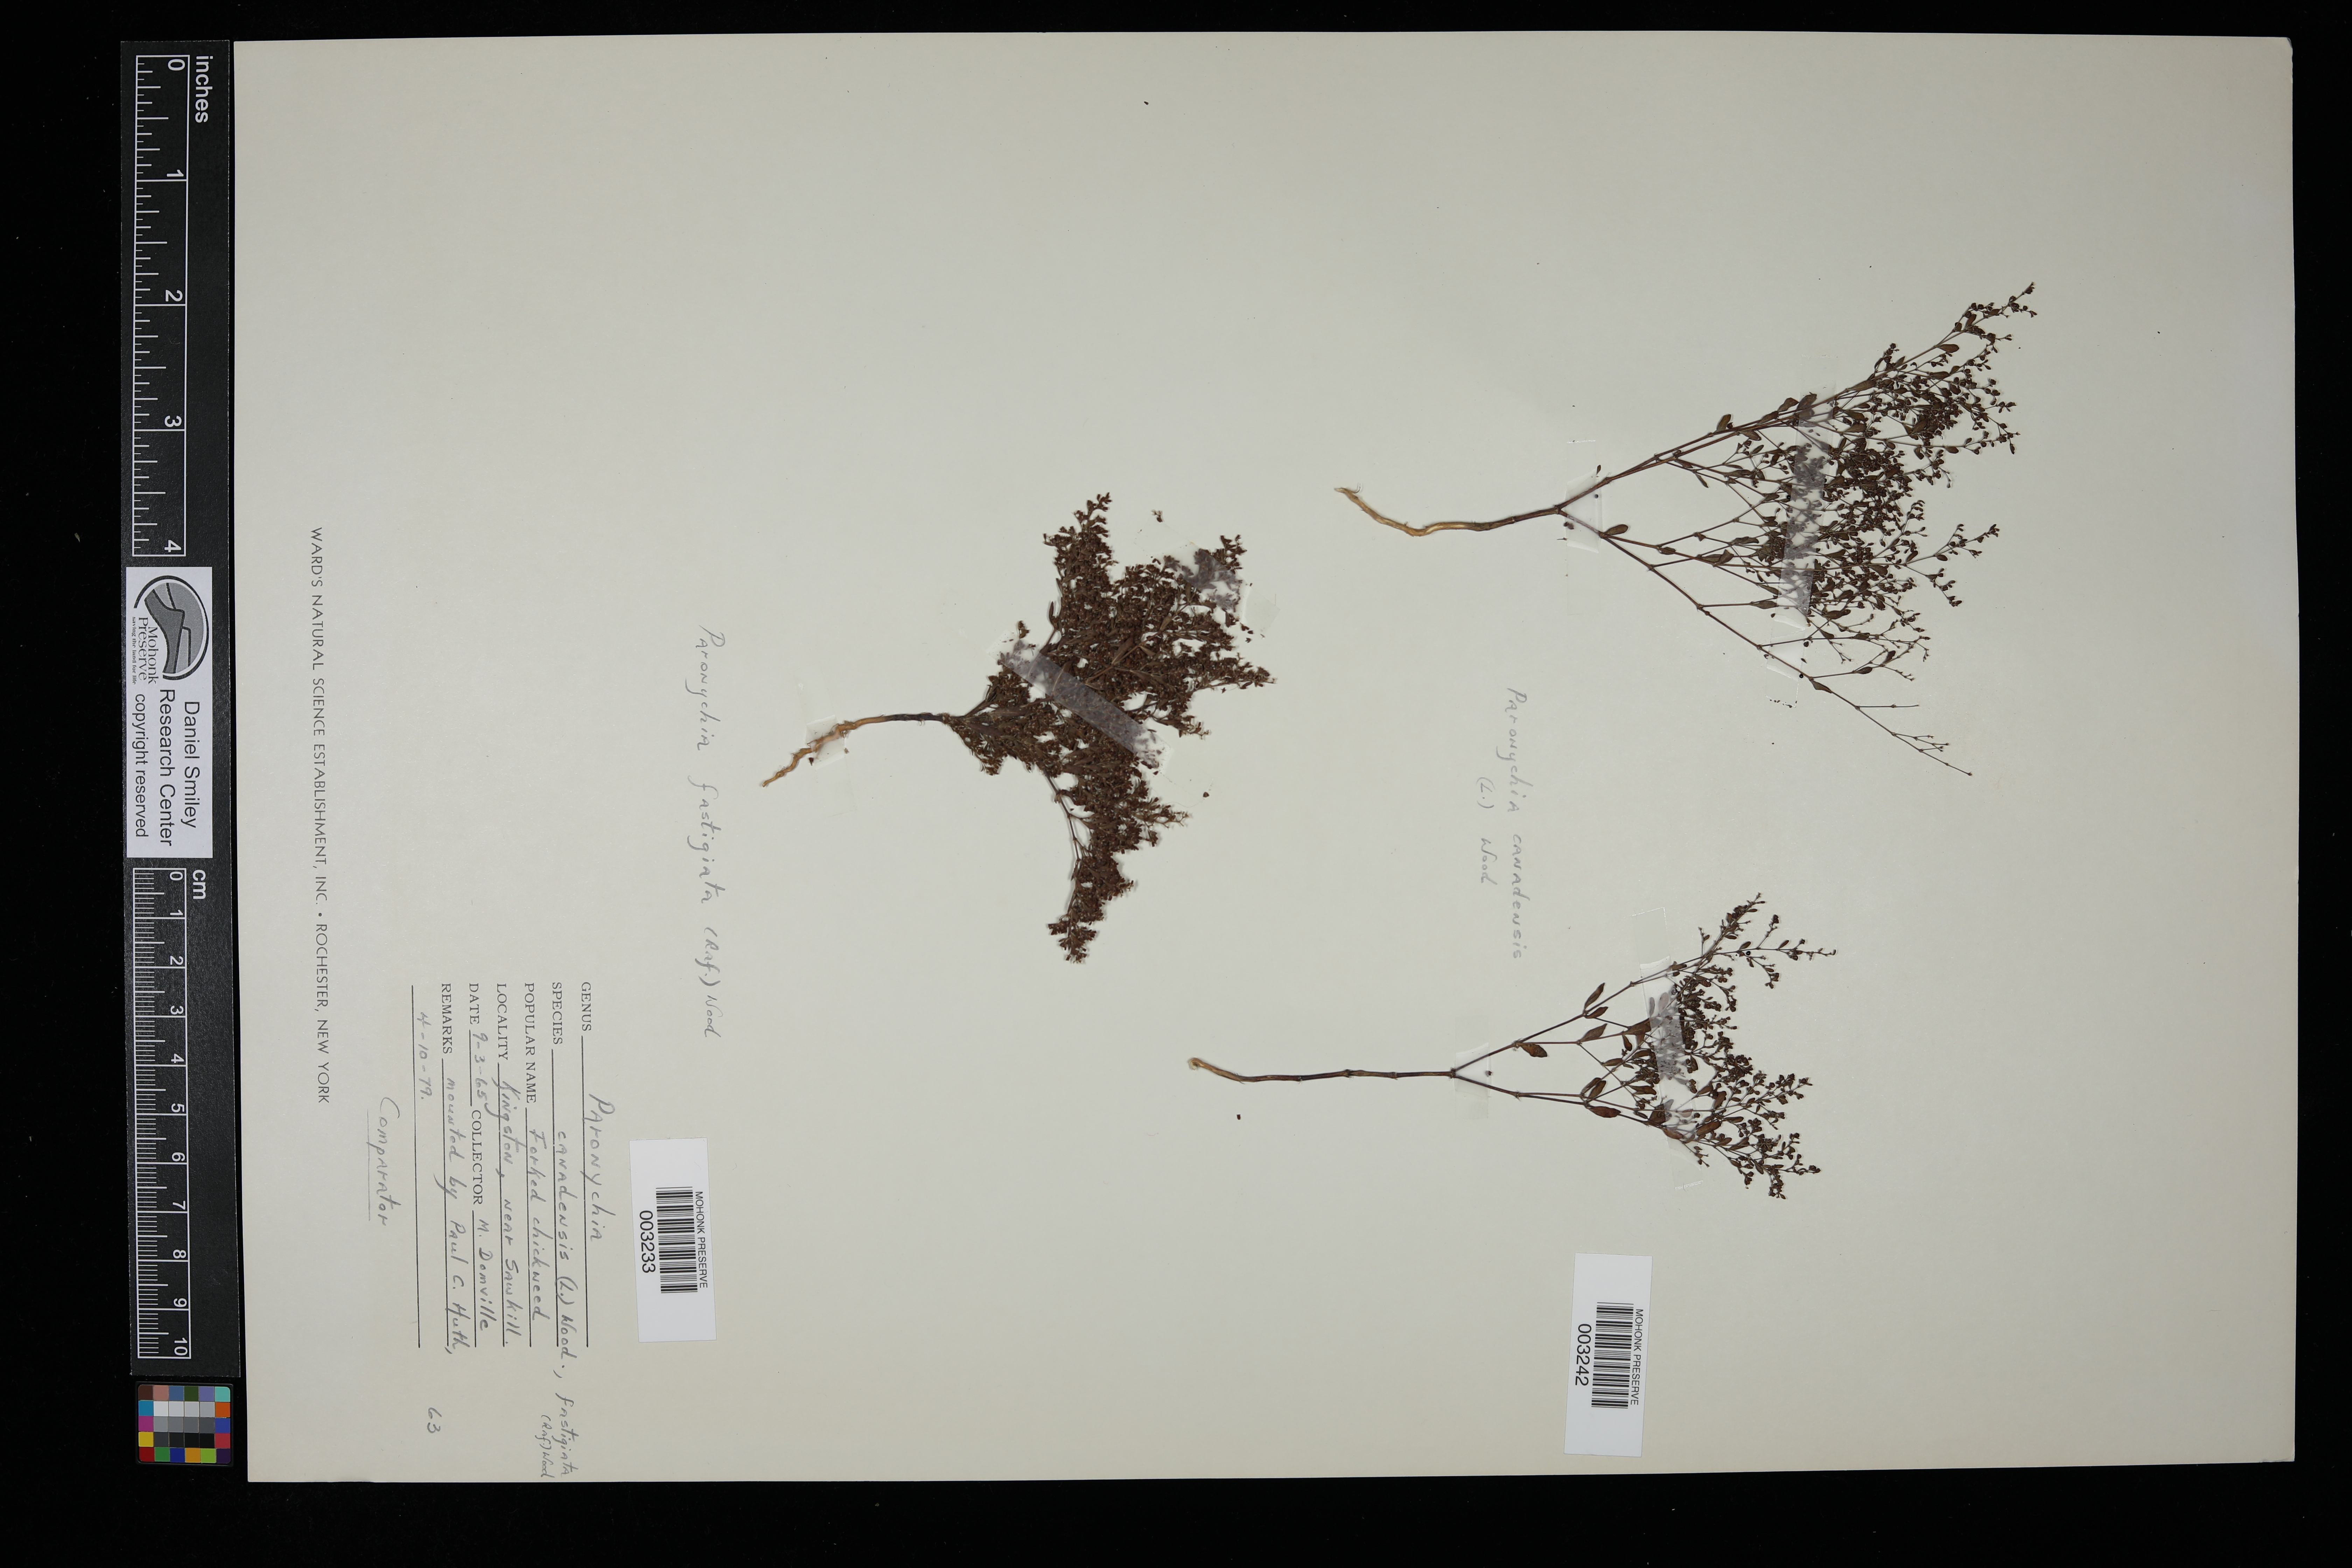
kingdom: Plantae
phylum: Tracheophyta
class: Magnoliopsida
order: Caryophyllales
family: Caryophyllaceae
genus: Paronychia
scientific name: Paronychia canadensis
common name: Canada forked nailwort
